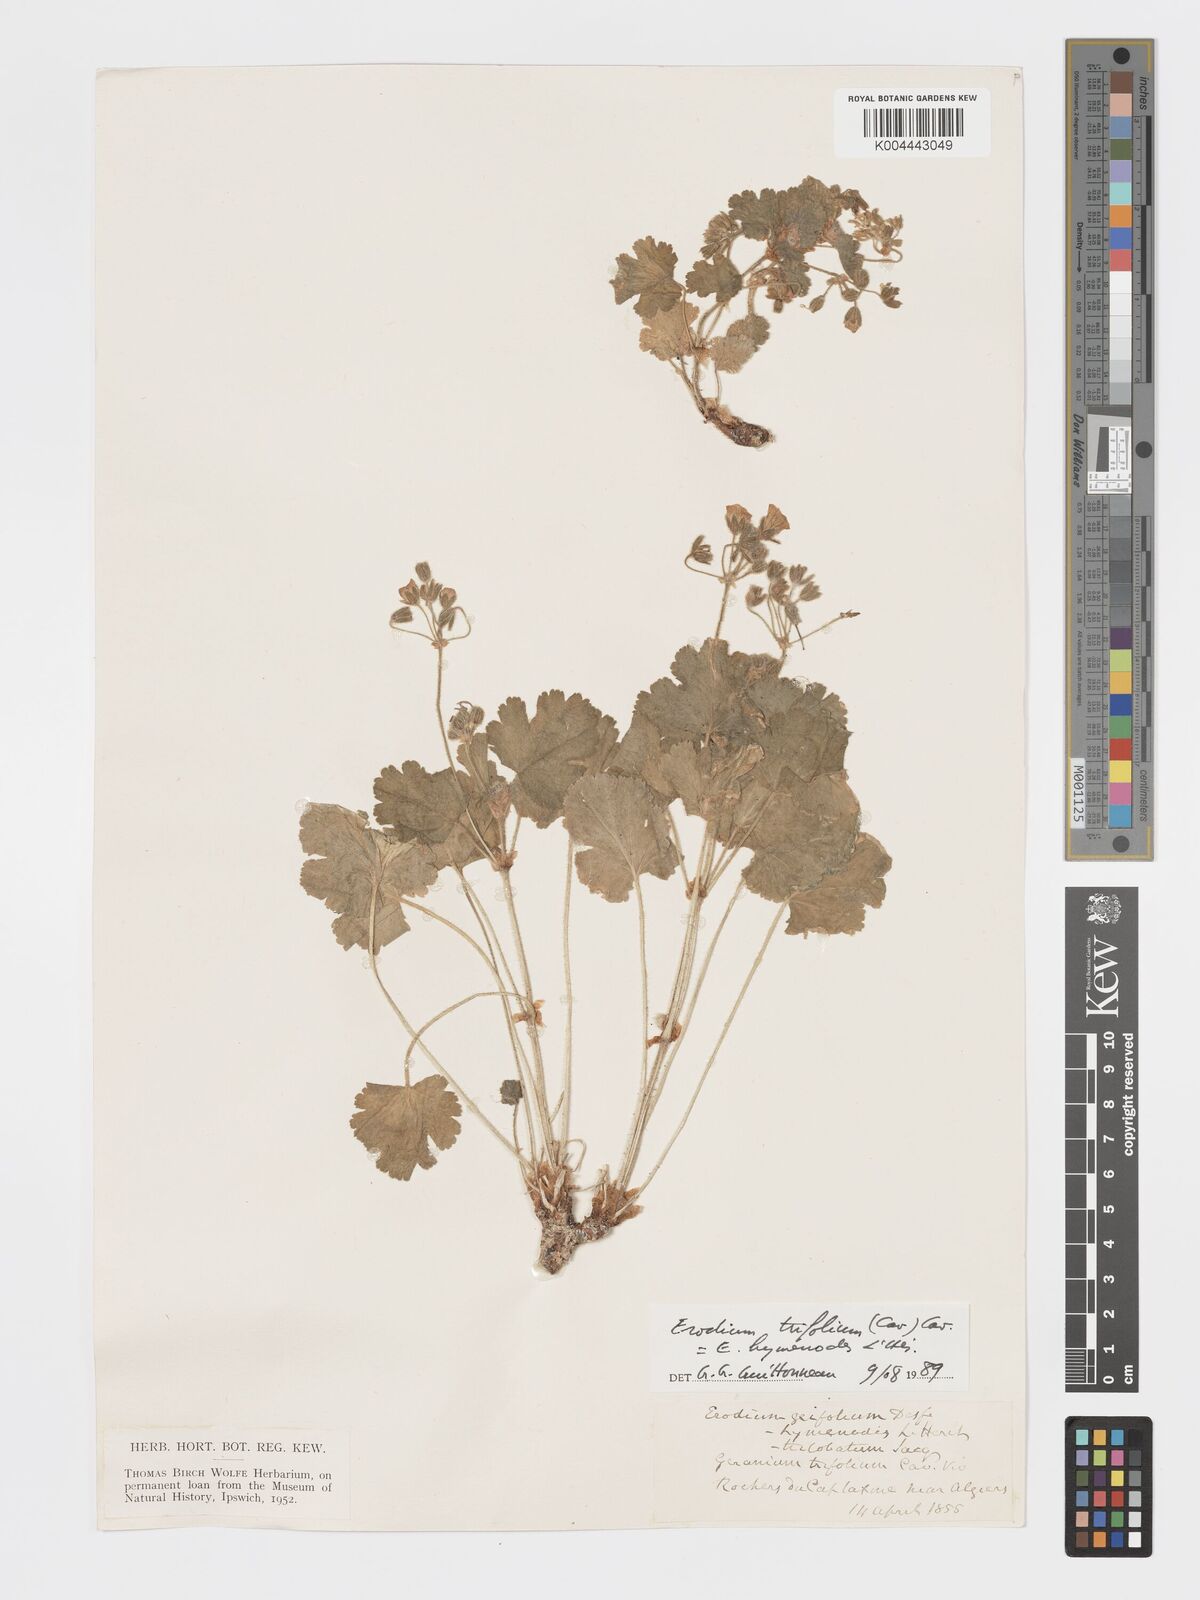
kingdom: Plantae
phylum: Tracheophyta
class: Magnoliopsida
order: Geraniales
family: Geraniaceae
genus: Erodium
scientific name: Erodium trifolium
